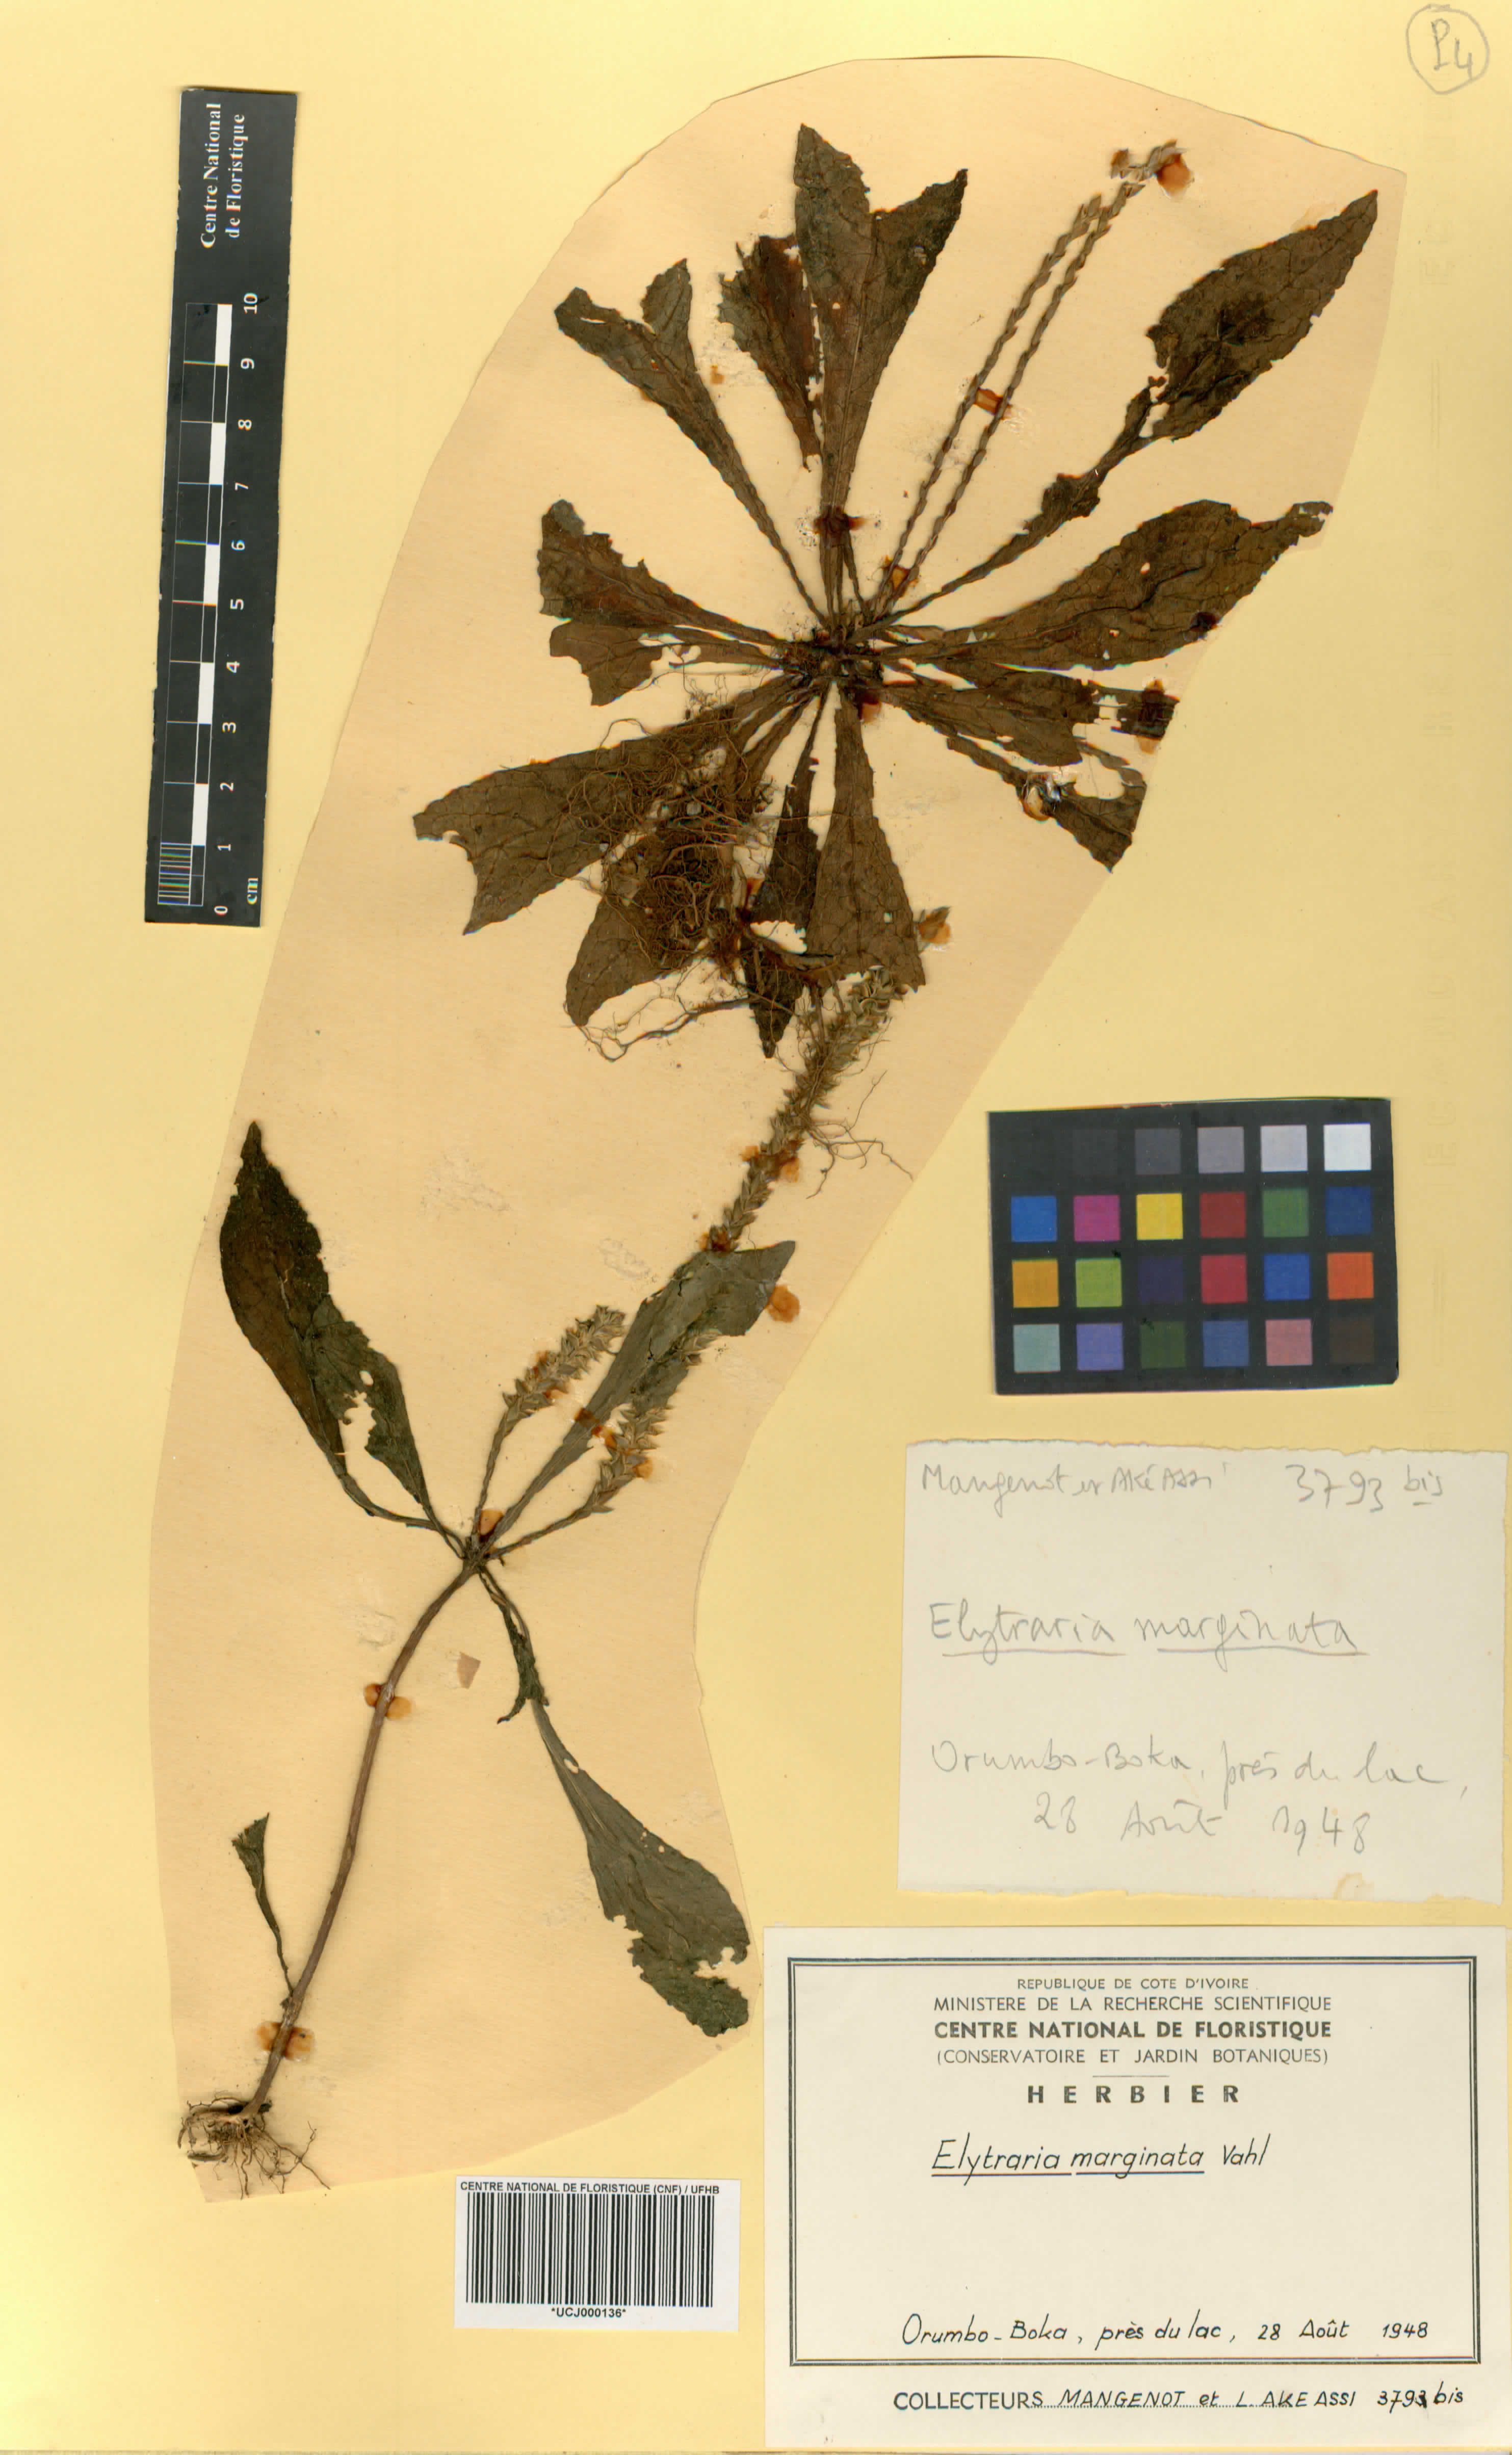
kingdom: Plantae
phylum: Tracheophyta
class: Magnoliopsida
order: Lamiales
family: Acanthaceae
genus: Elytraria
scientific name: Elytraria maritima
